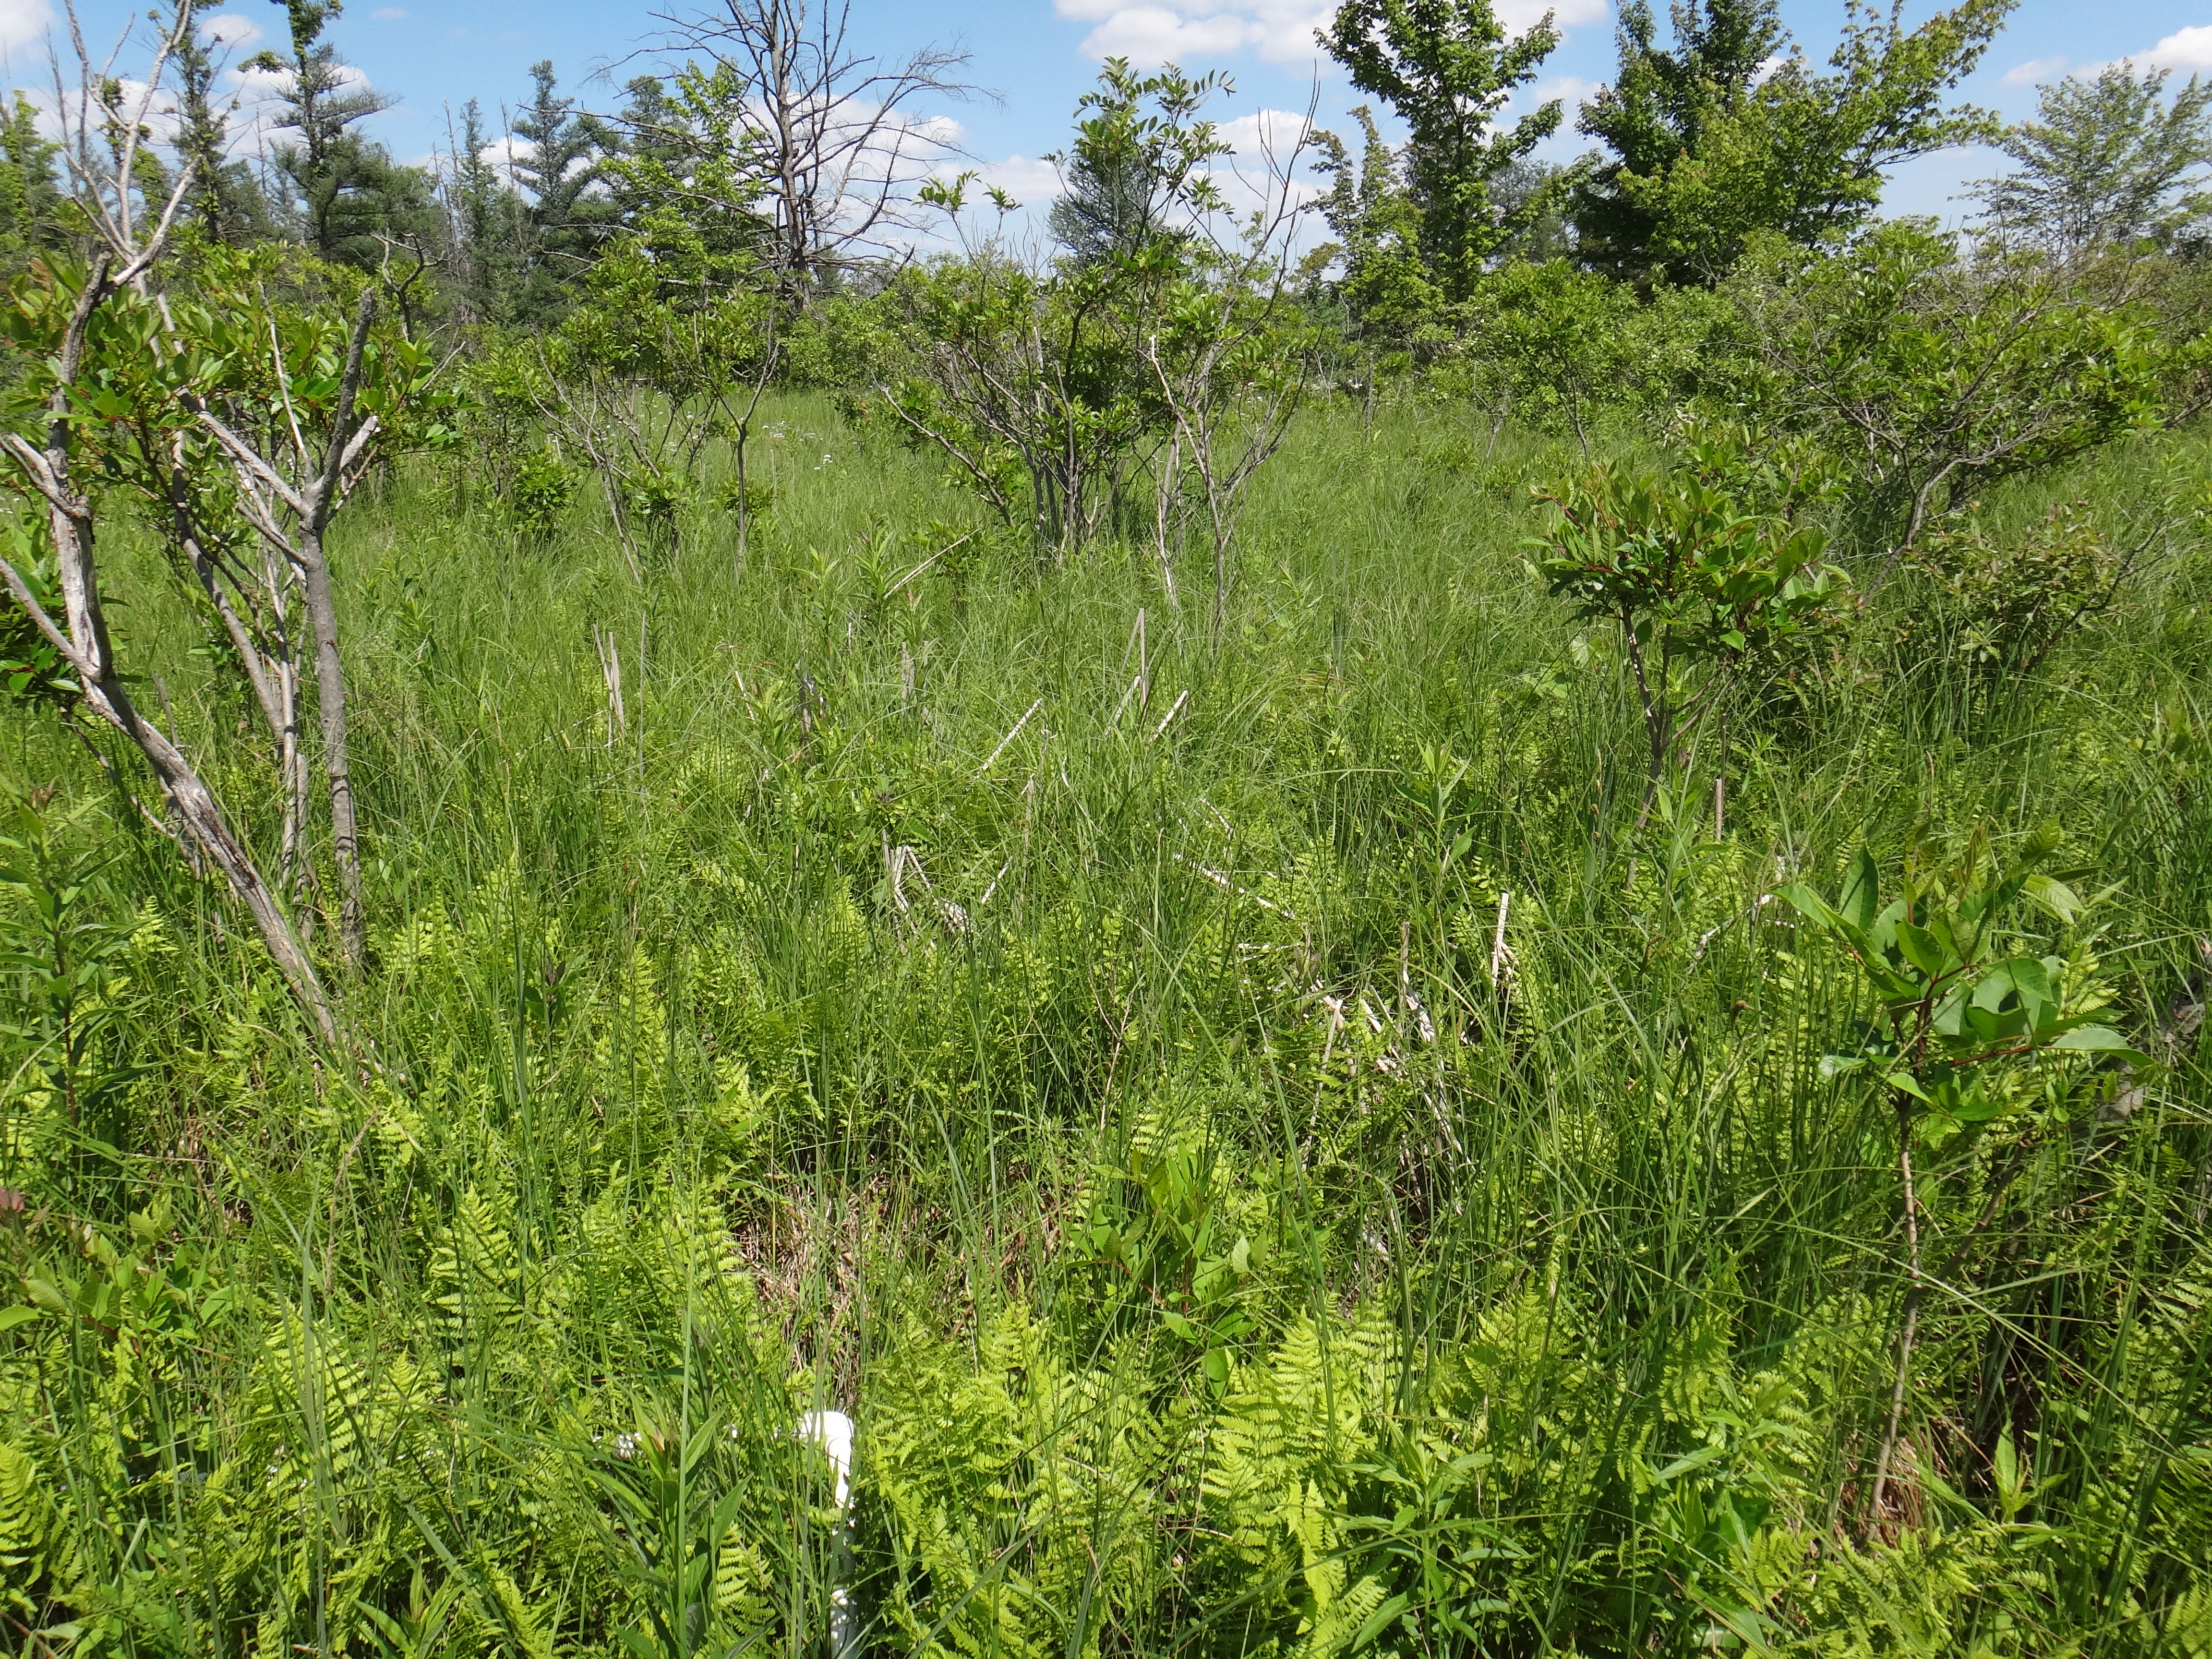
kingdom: Plantae
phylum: Tracheophyta
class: Magnoliopsida
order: Asterales
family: Asteraceae
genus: Solidago
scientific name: Solidago patula
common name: Rough-leaf goldenrod
